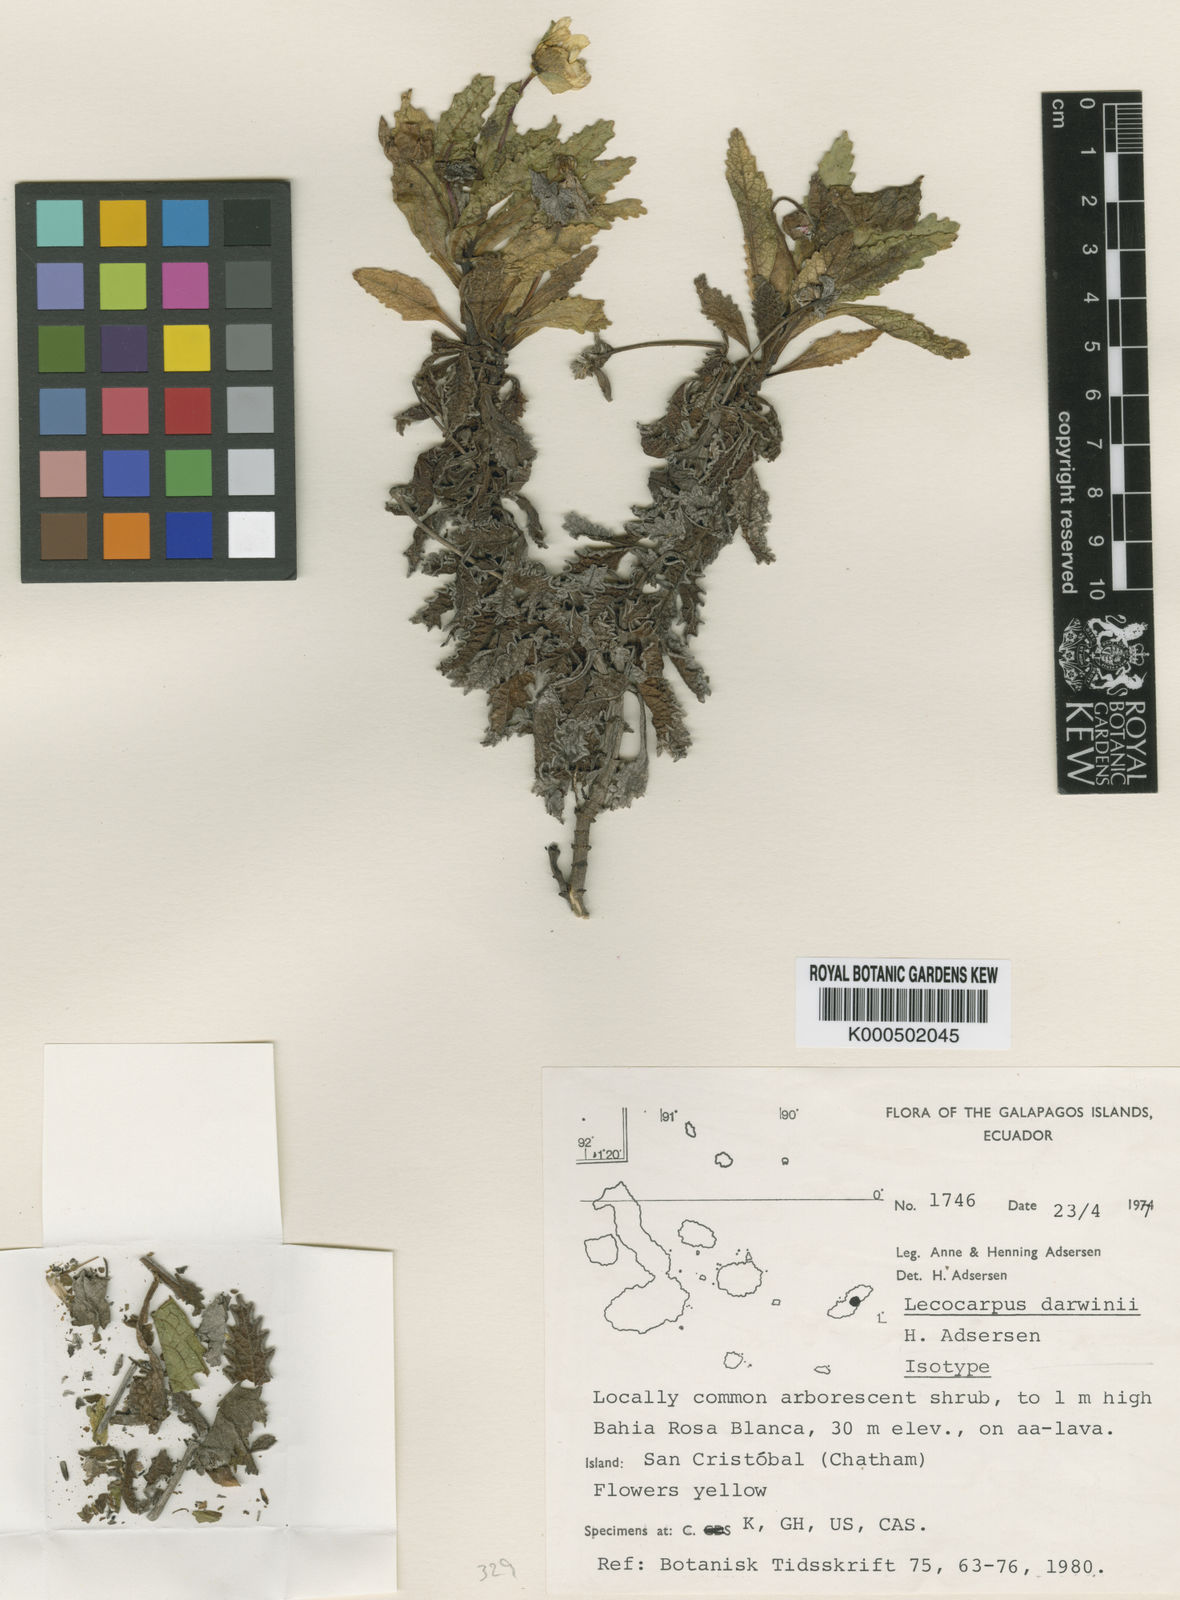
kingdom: Plantae
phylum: Tracheophyta
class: Magnoliopsida
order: Asterales
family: Asteraceae
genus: Lecocarpus
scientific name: Lecocarpus darwinii
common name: Cut leaf daisy
